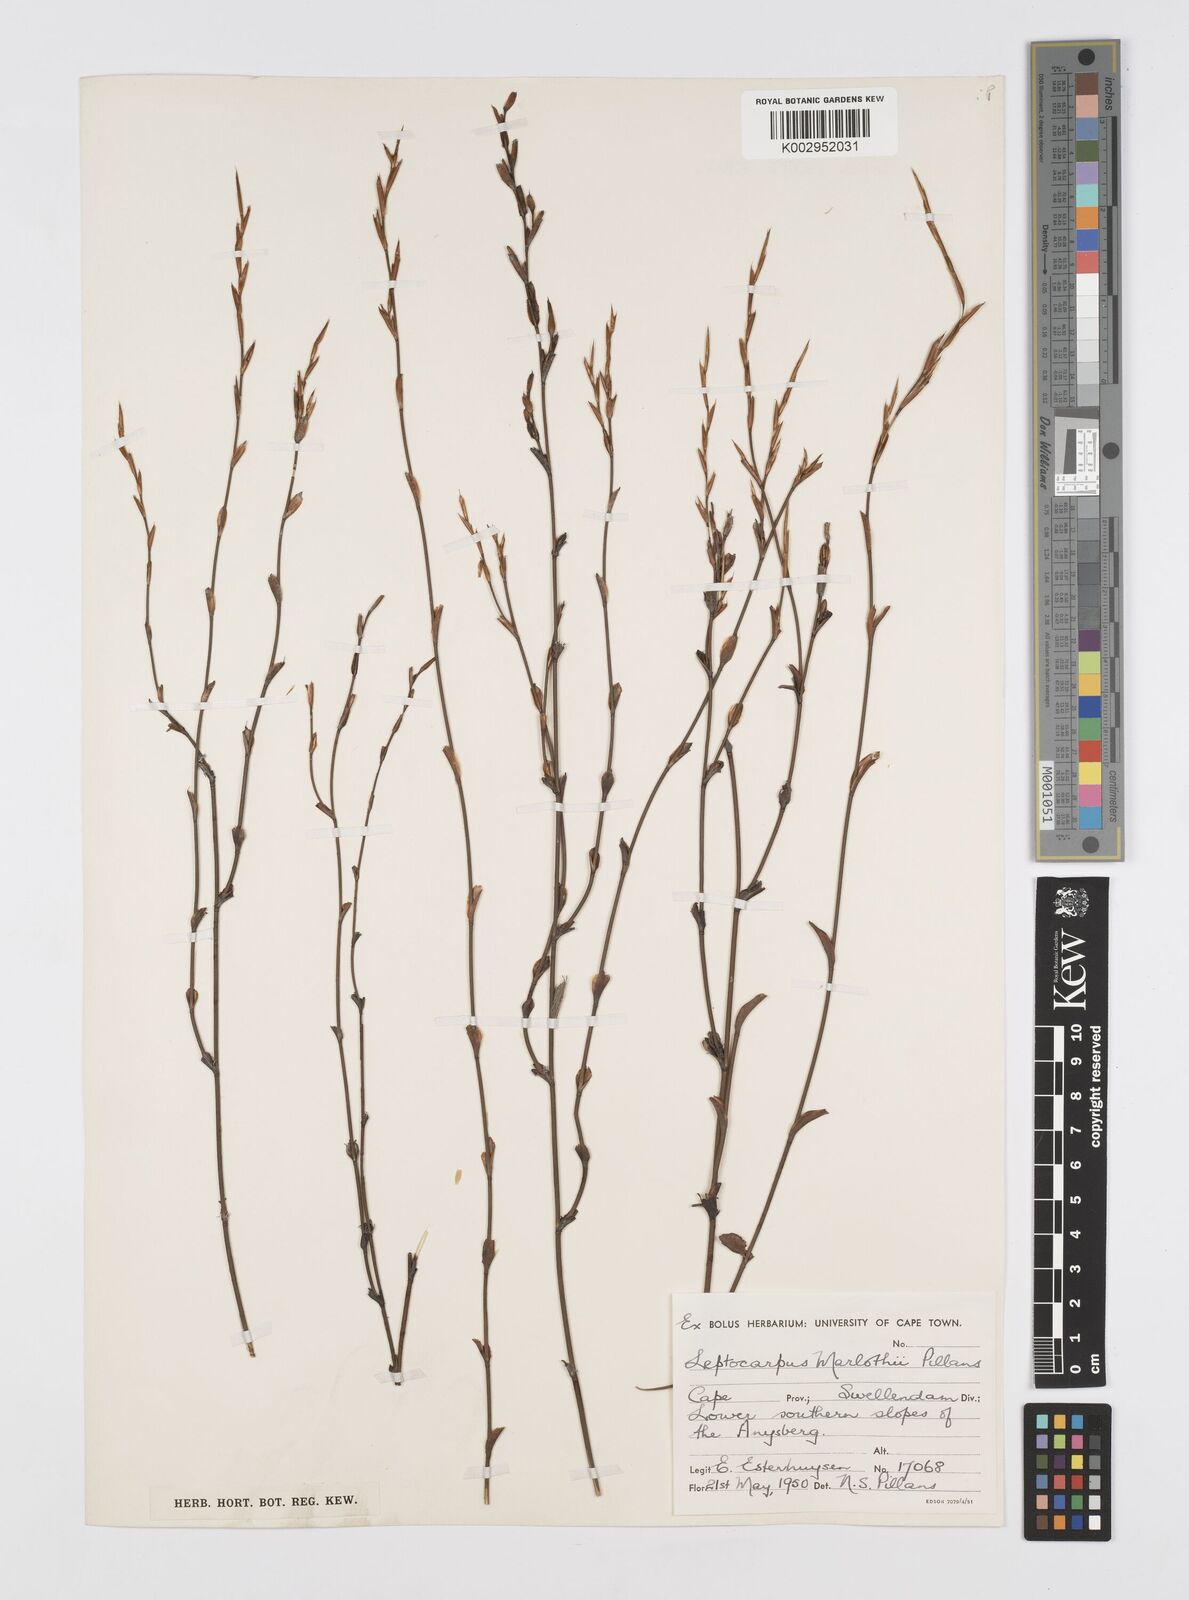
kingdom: Plantae
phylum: Tracheophyta
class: Liliopsida
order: Poales
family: Restionaceae
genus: Restio
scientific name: Restio marlothii
